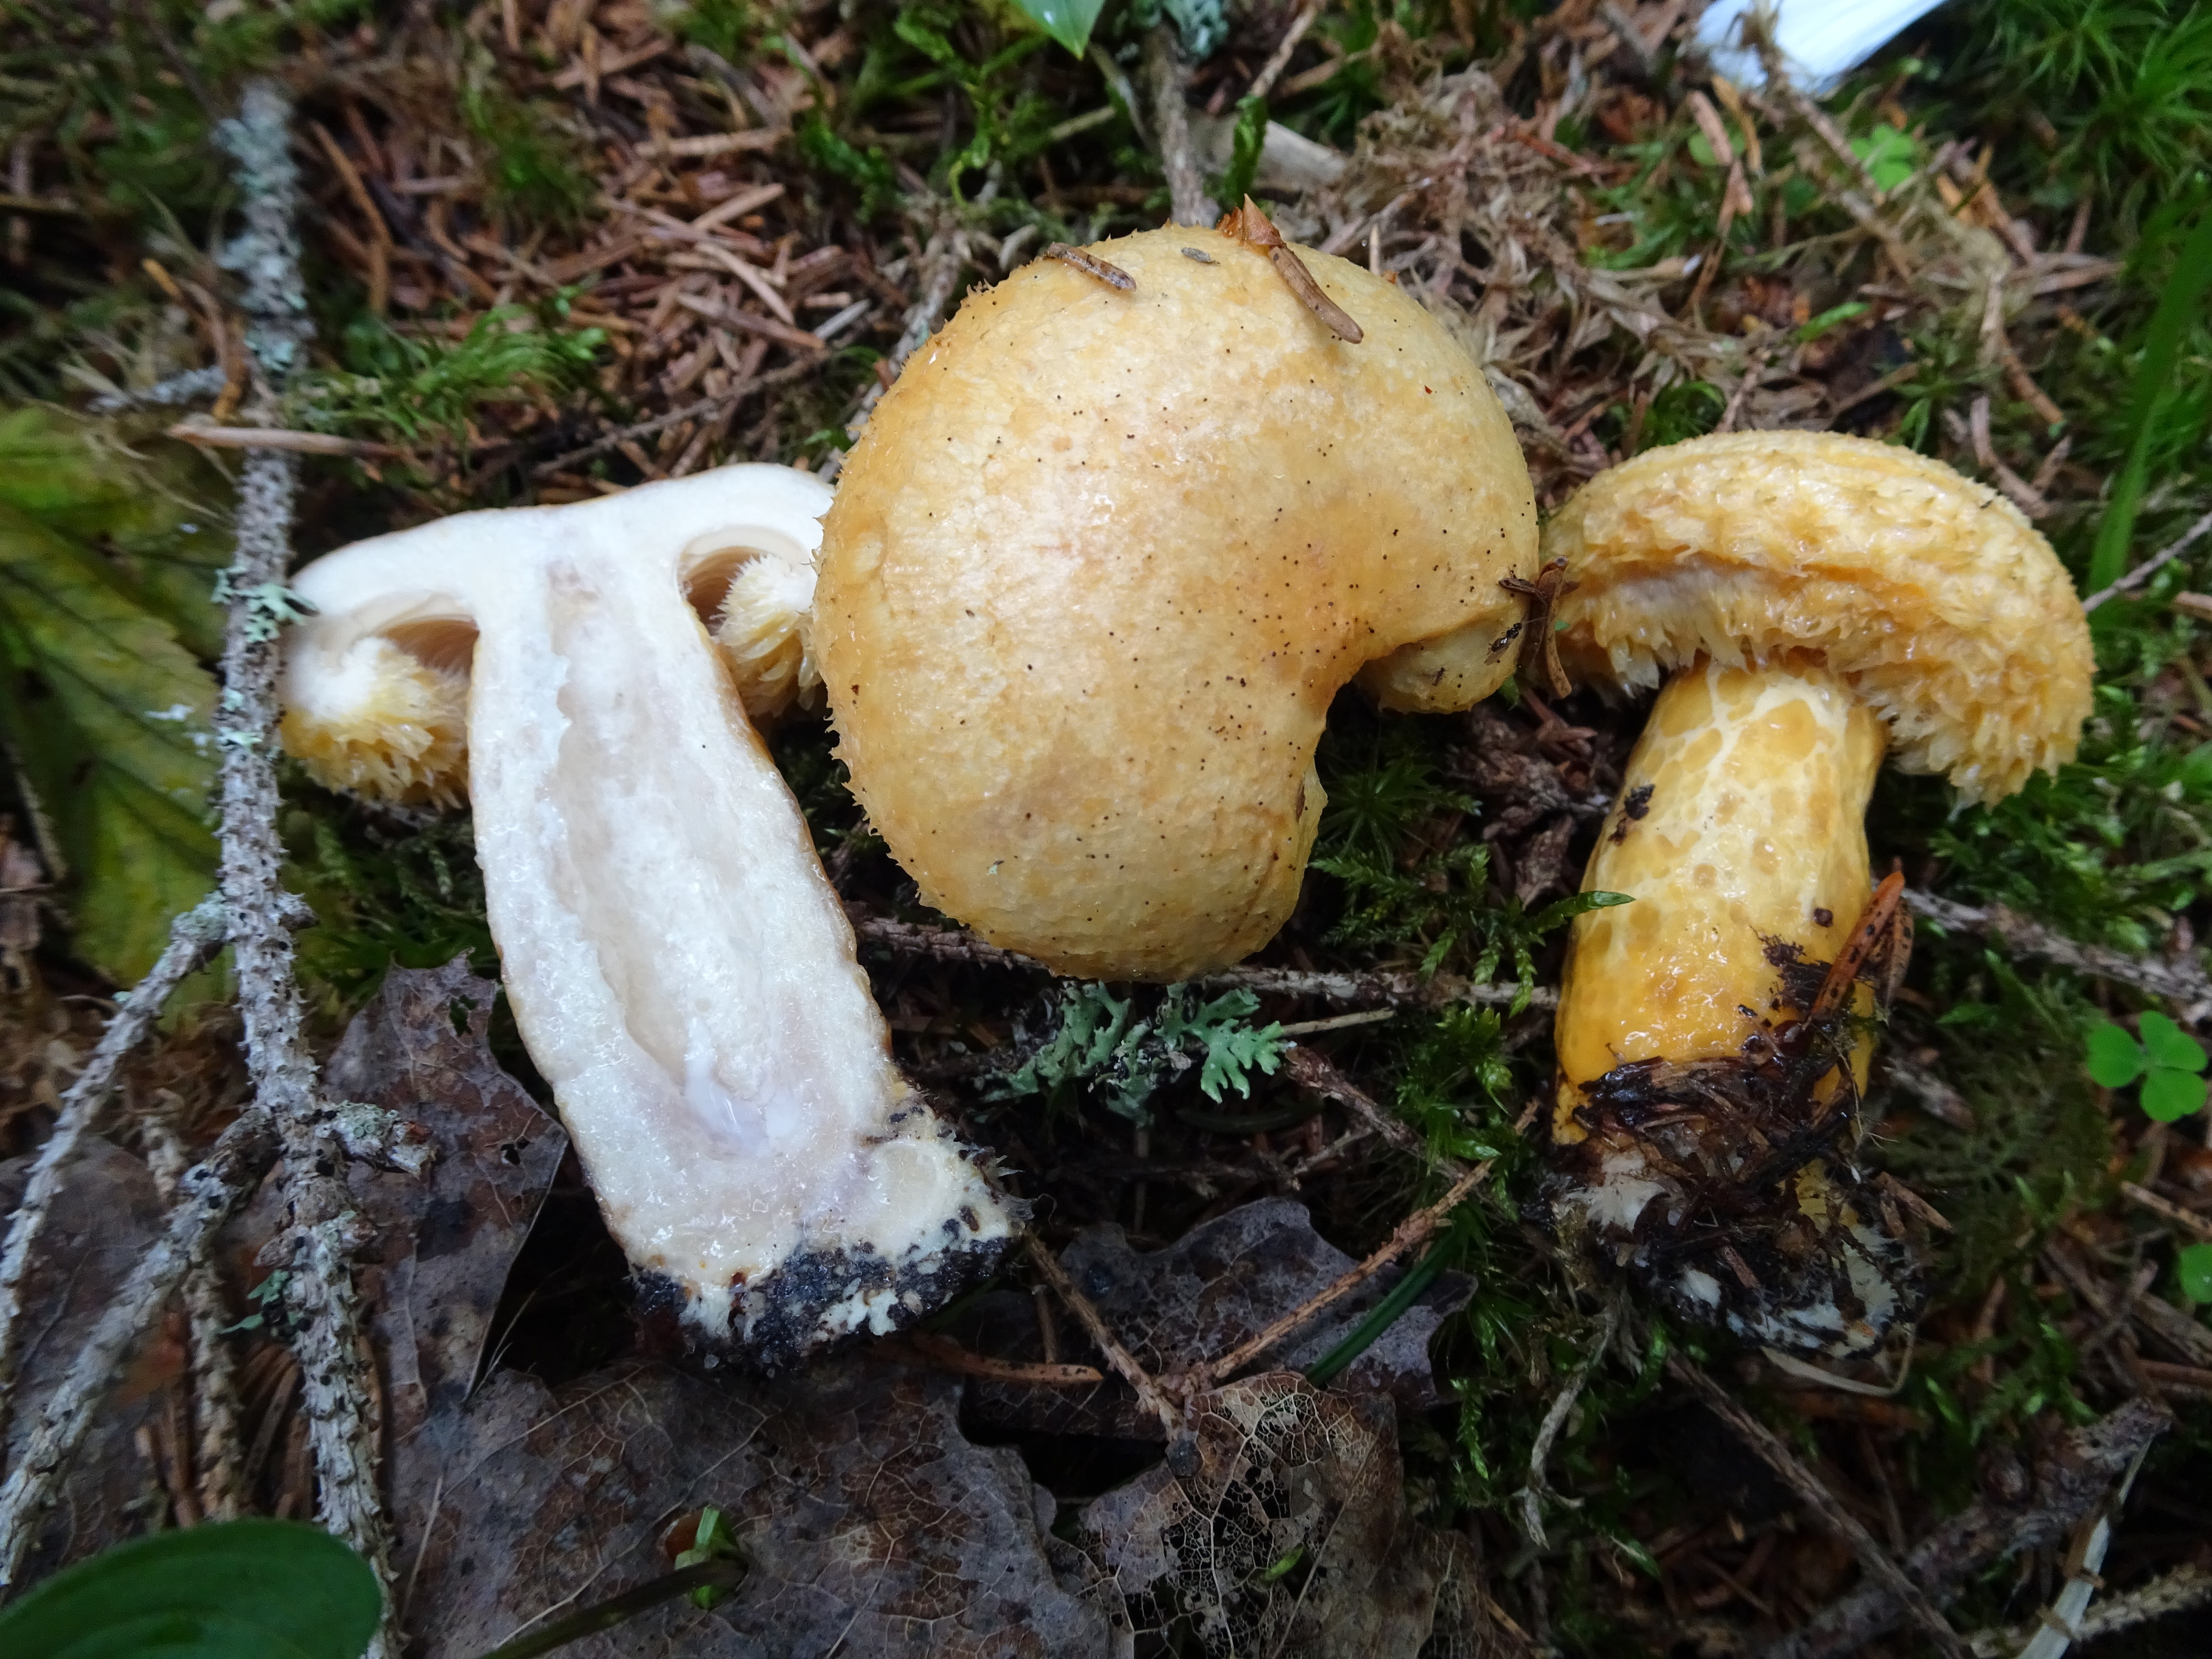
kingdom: Fungi
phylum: Basidiomycota
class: Agaricomycetes
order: Russulales
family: Russulaceae
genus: Lactarius
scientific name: Lactarius repraesentaneus
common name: Yellow bearded milkcap
